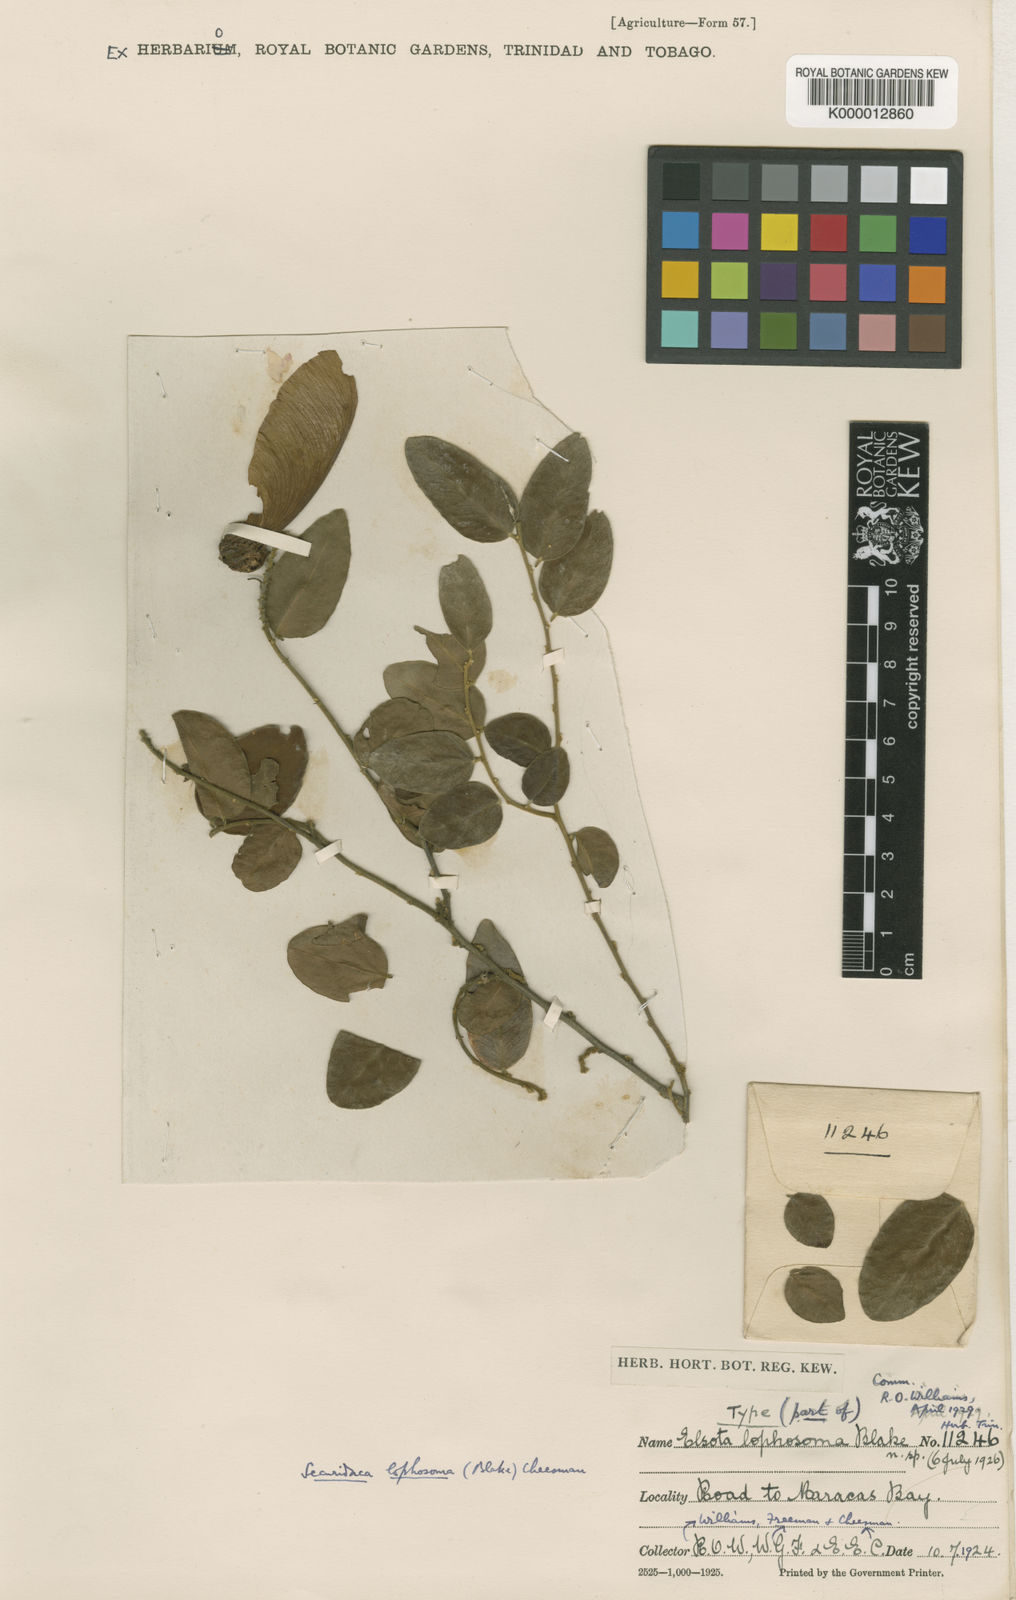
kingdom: Plantae
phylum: Tracheophyta
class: Magnoliopsida
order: Fabales
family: Polygalaceae
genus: Securidaca
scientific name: Securidaca lophosoma
